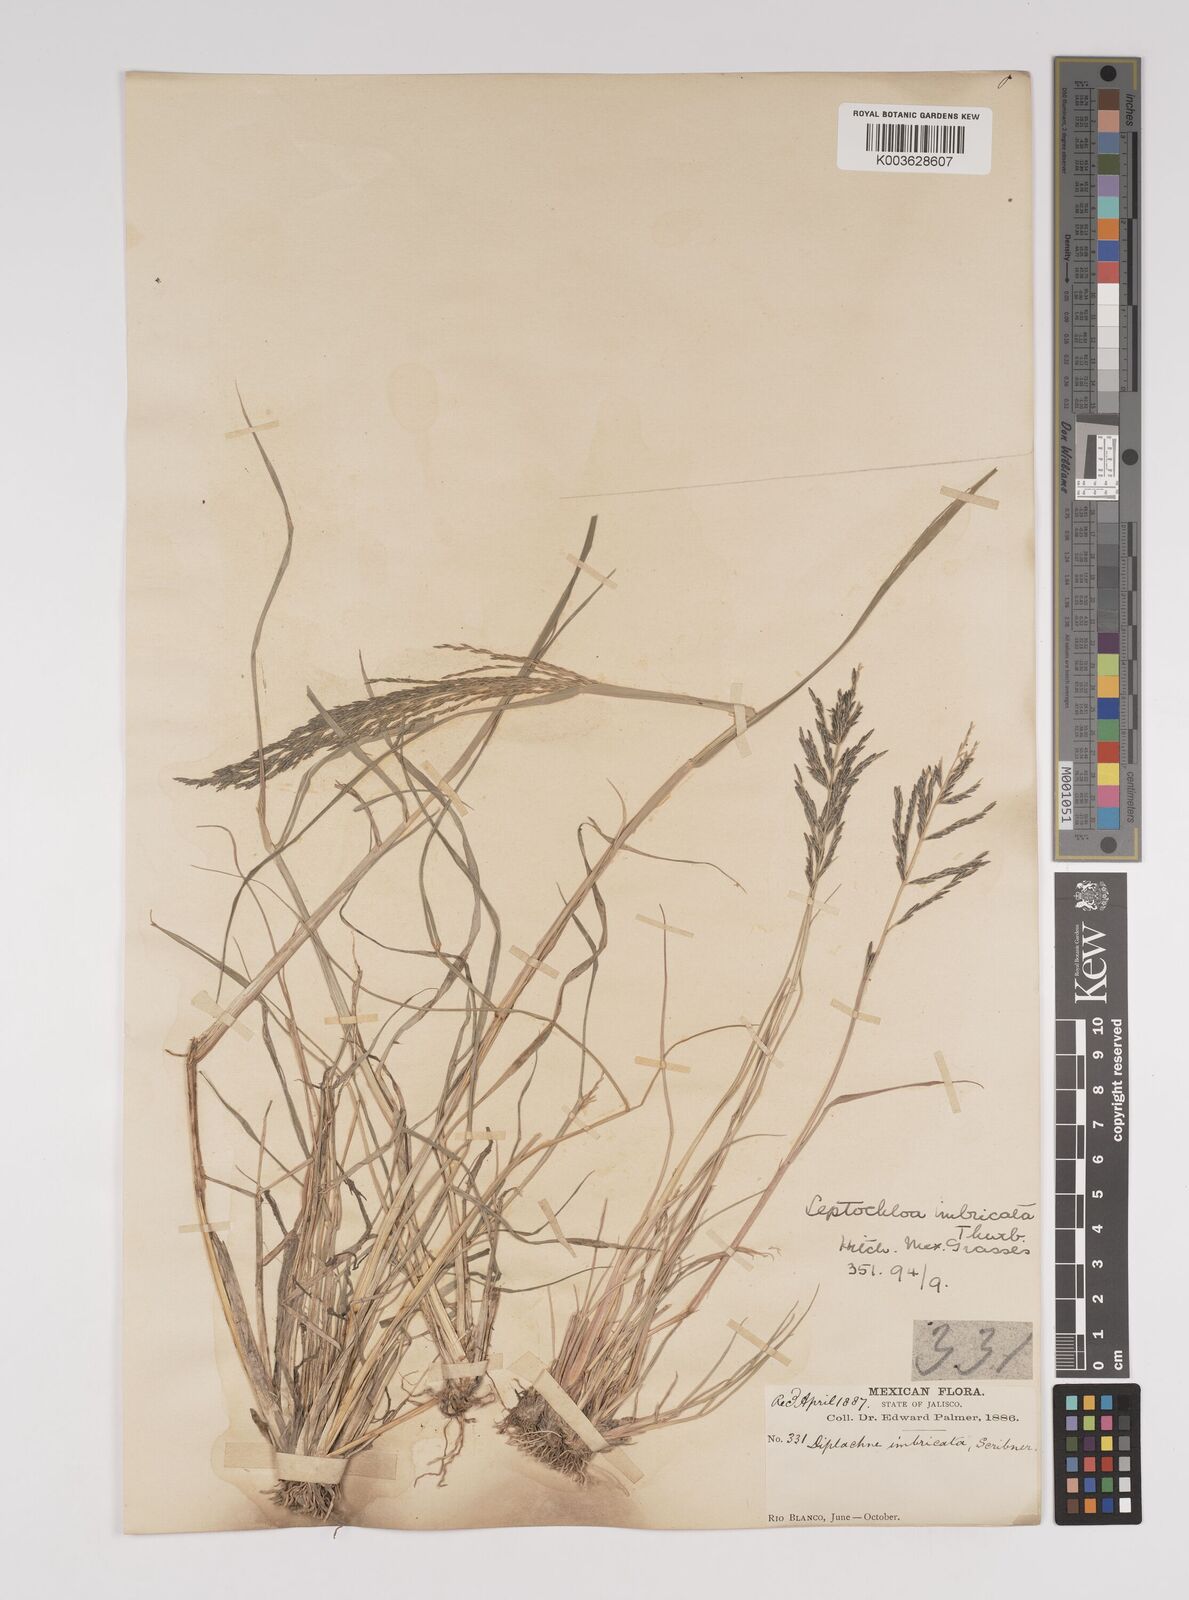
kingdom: Plantae
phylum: Tracheophyta
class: Liliopsida
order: Poales
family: Poaceae
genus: Diplachne
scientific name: Diplachne fusca
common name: Brown beetle grass
